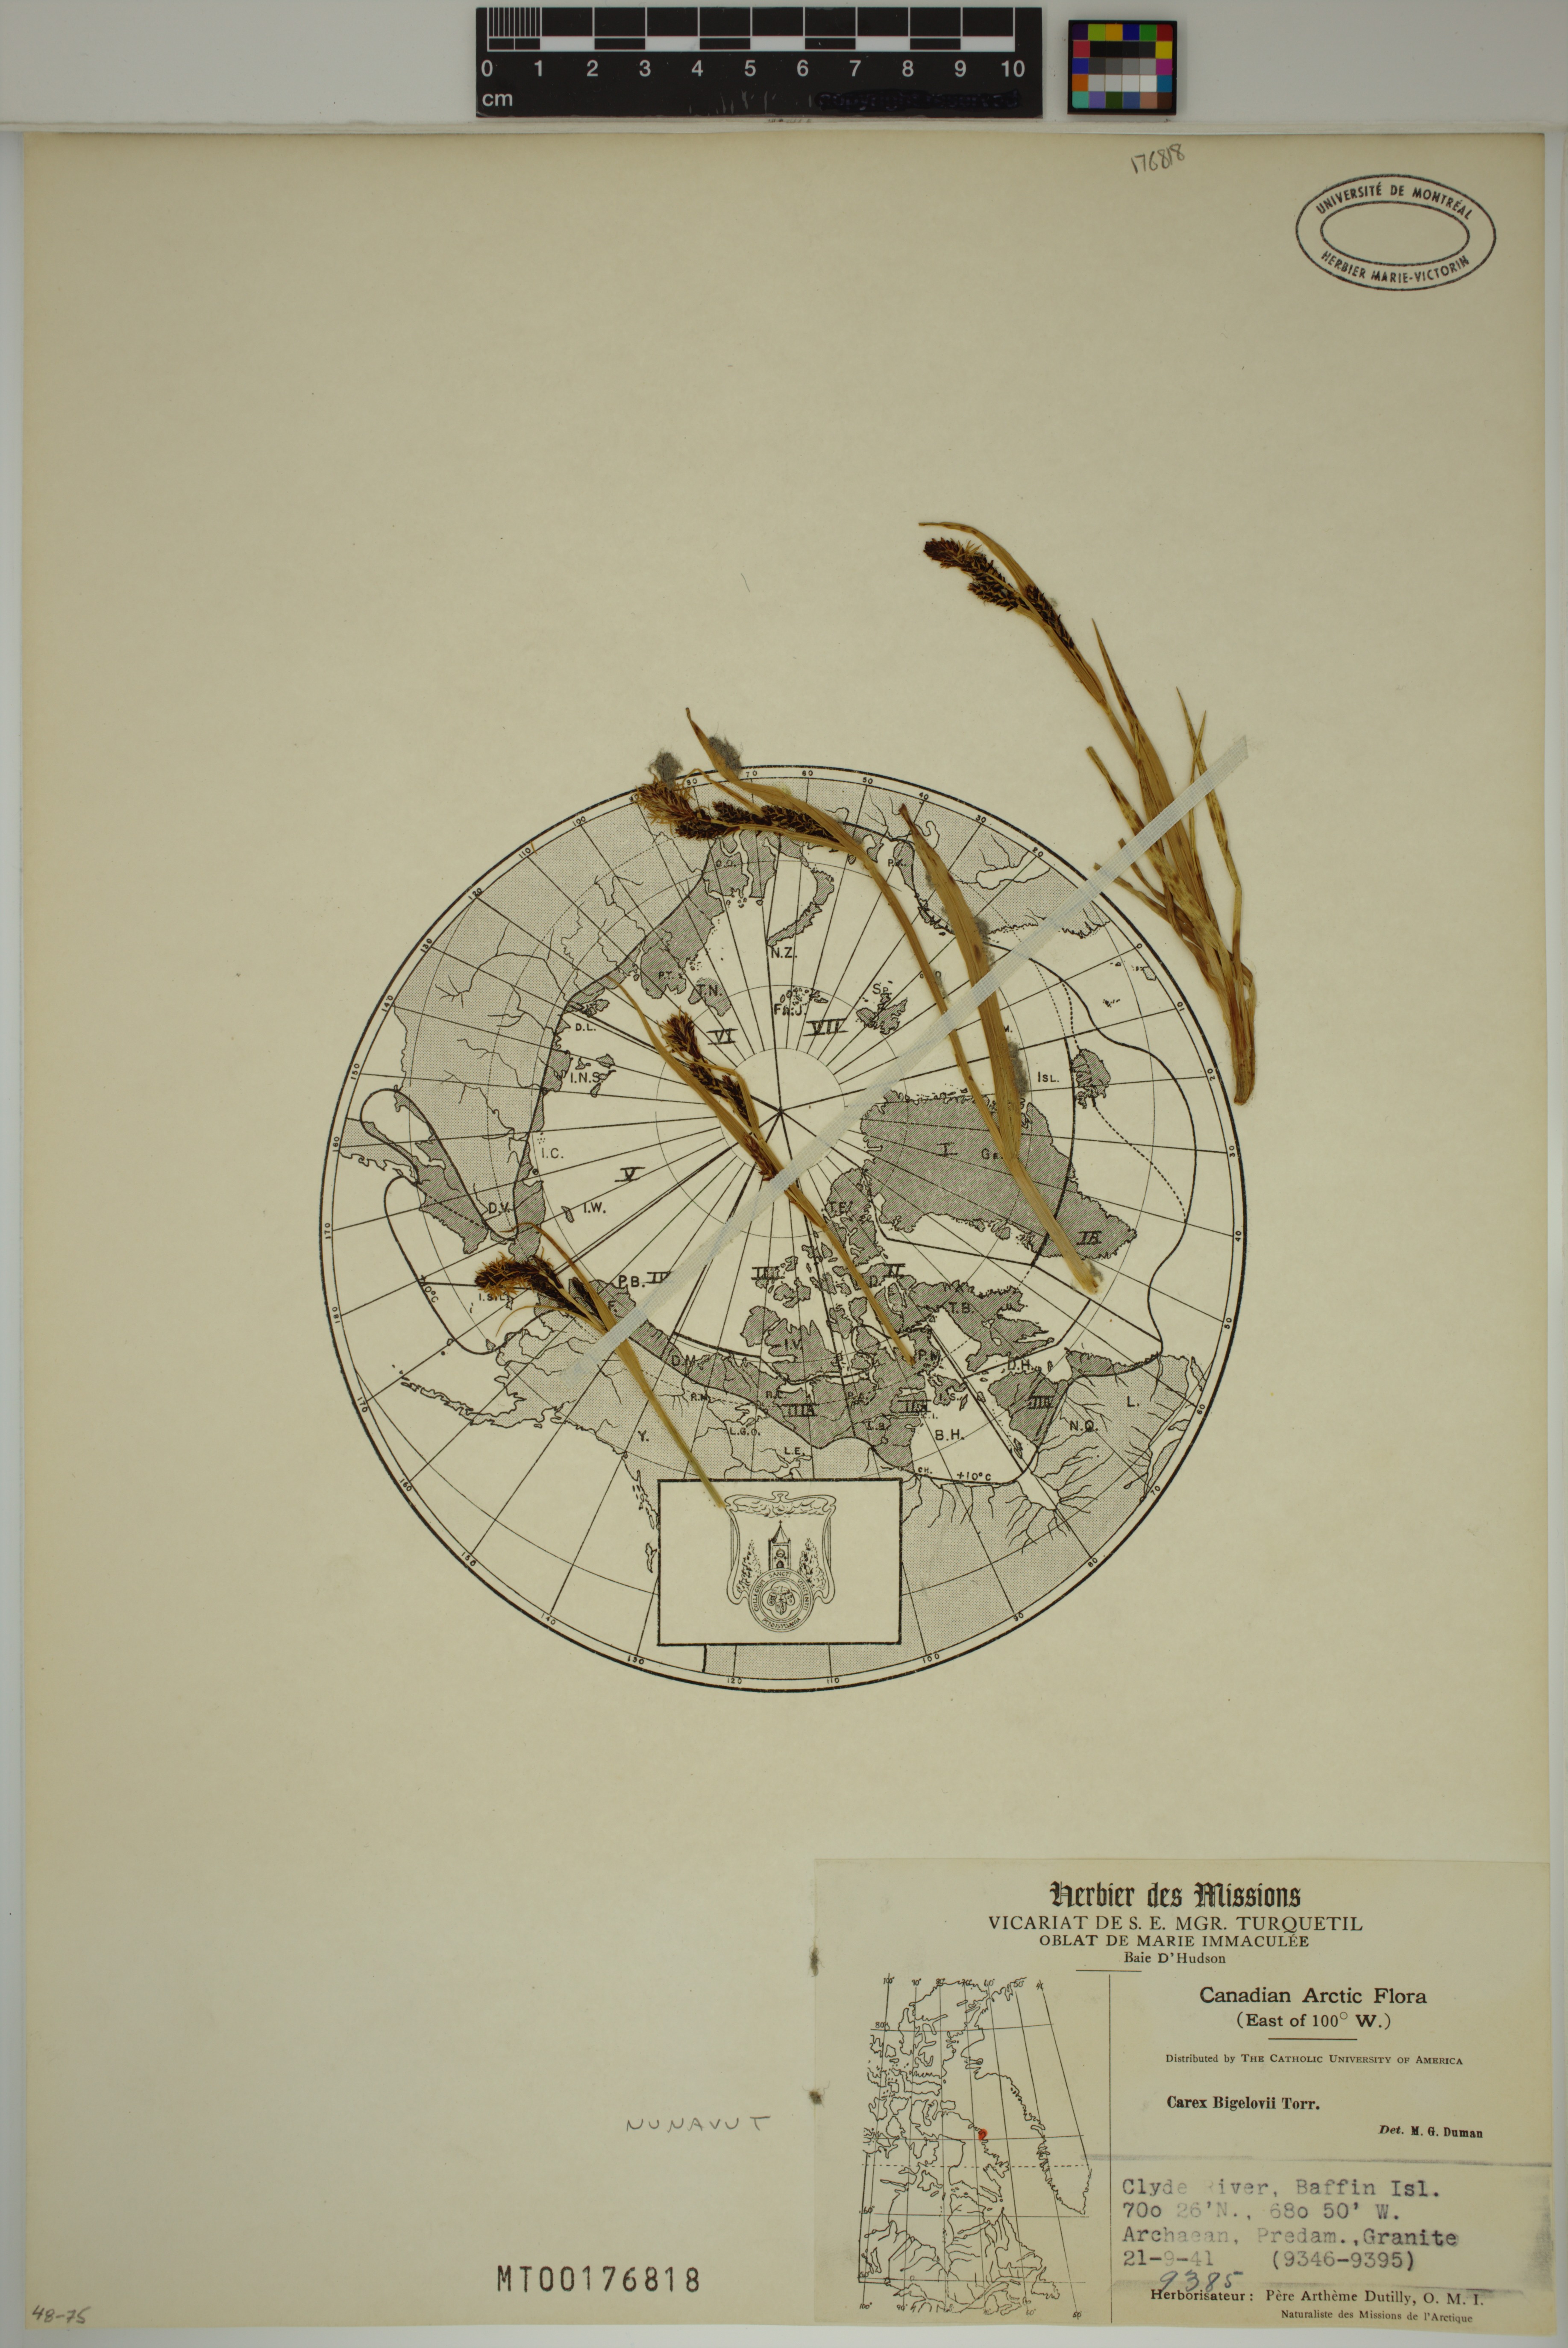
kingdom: Plantae
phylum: Tracheophyta
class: Liliopsida
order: Poales
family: Cyperaceae
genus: Carex
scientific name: Carex aquatilis
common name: Water sedge
